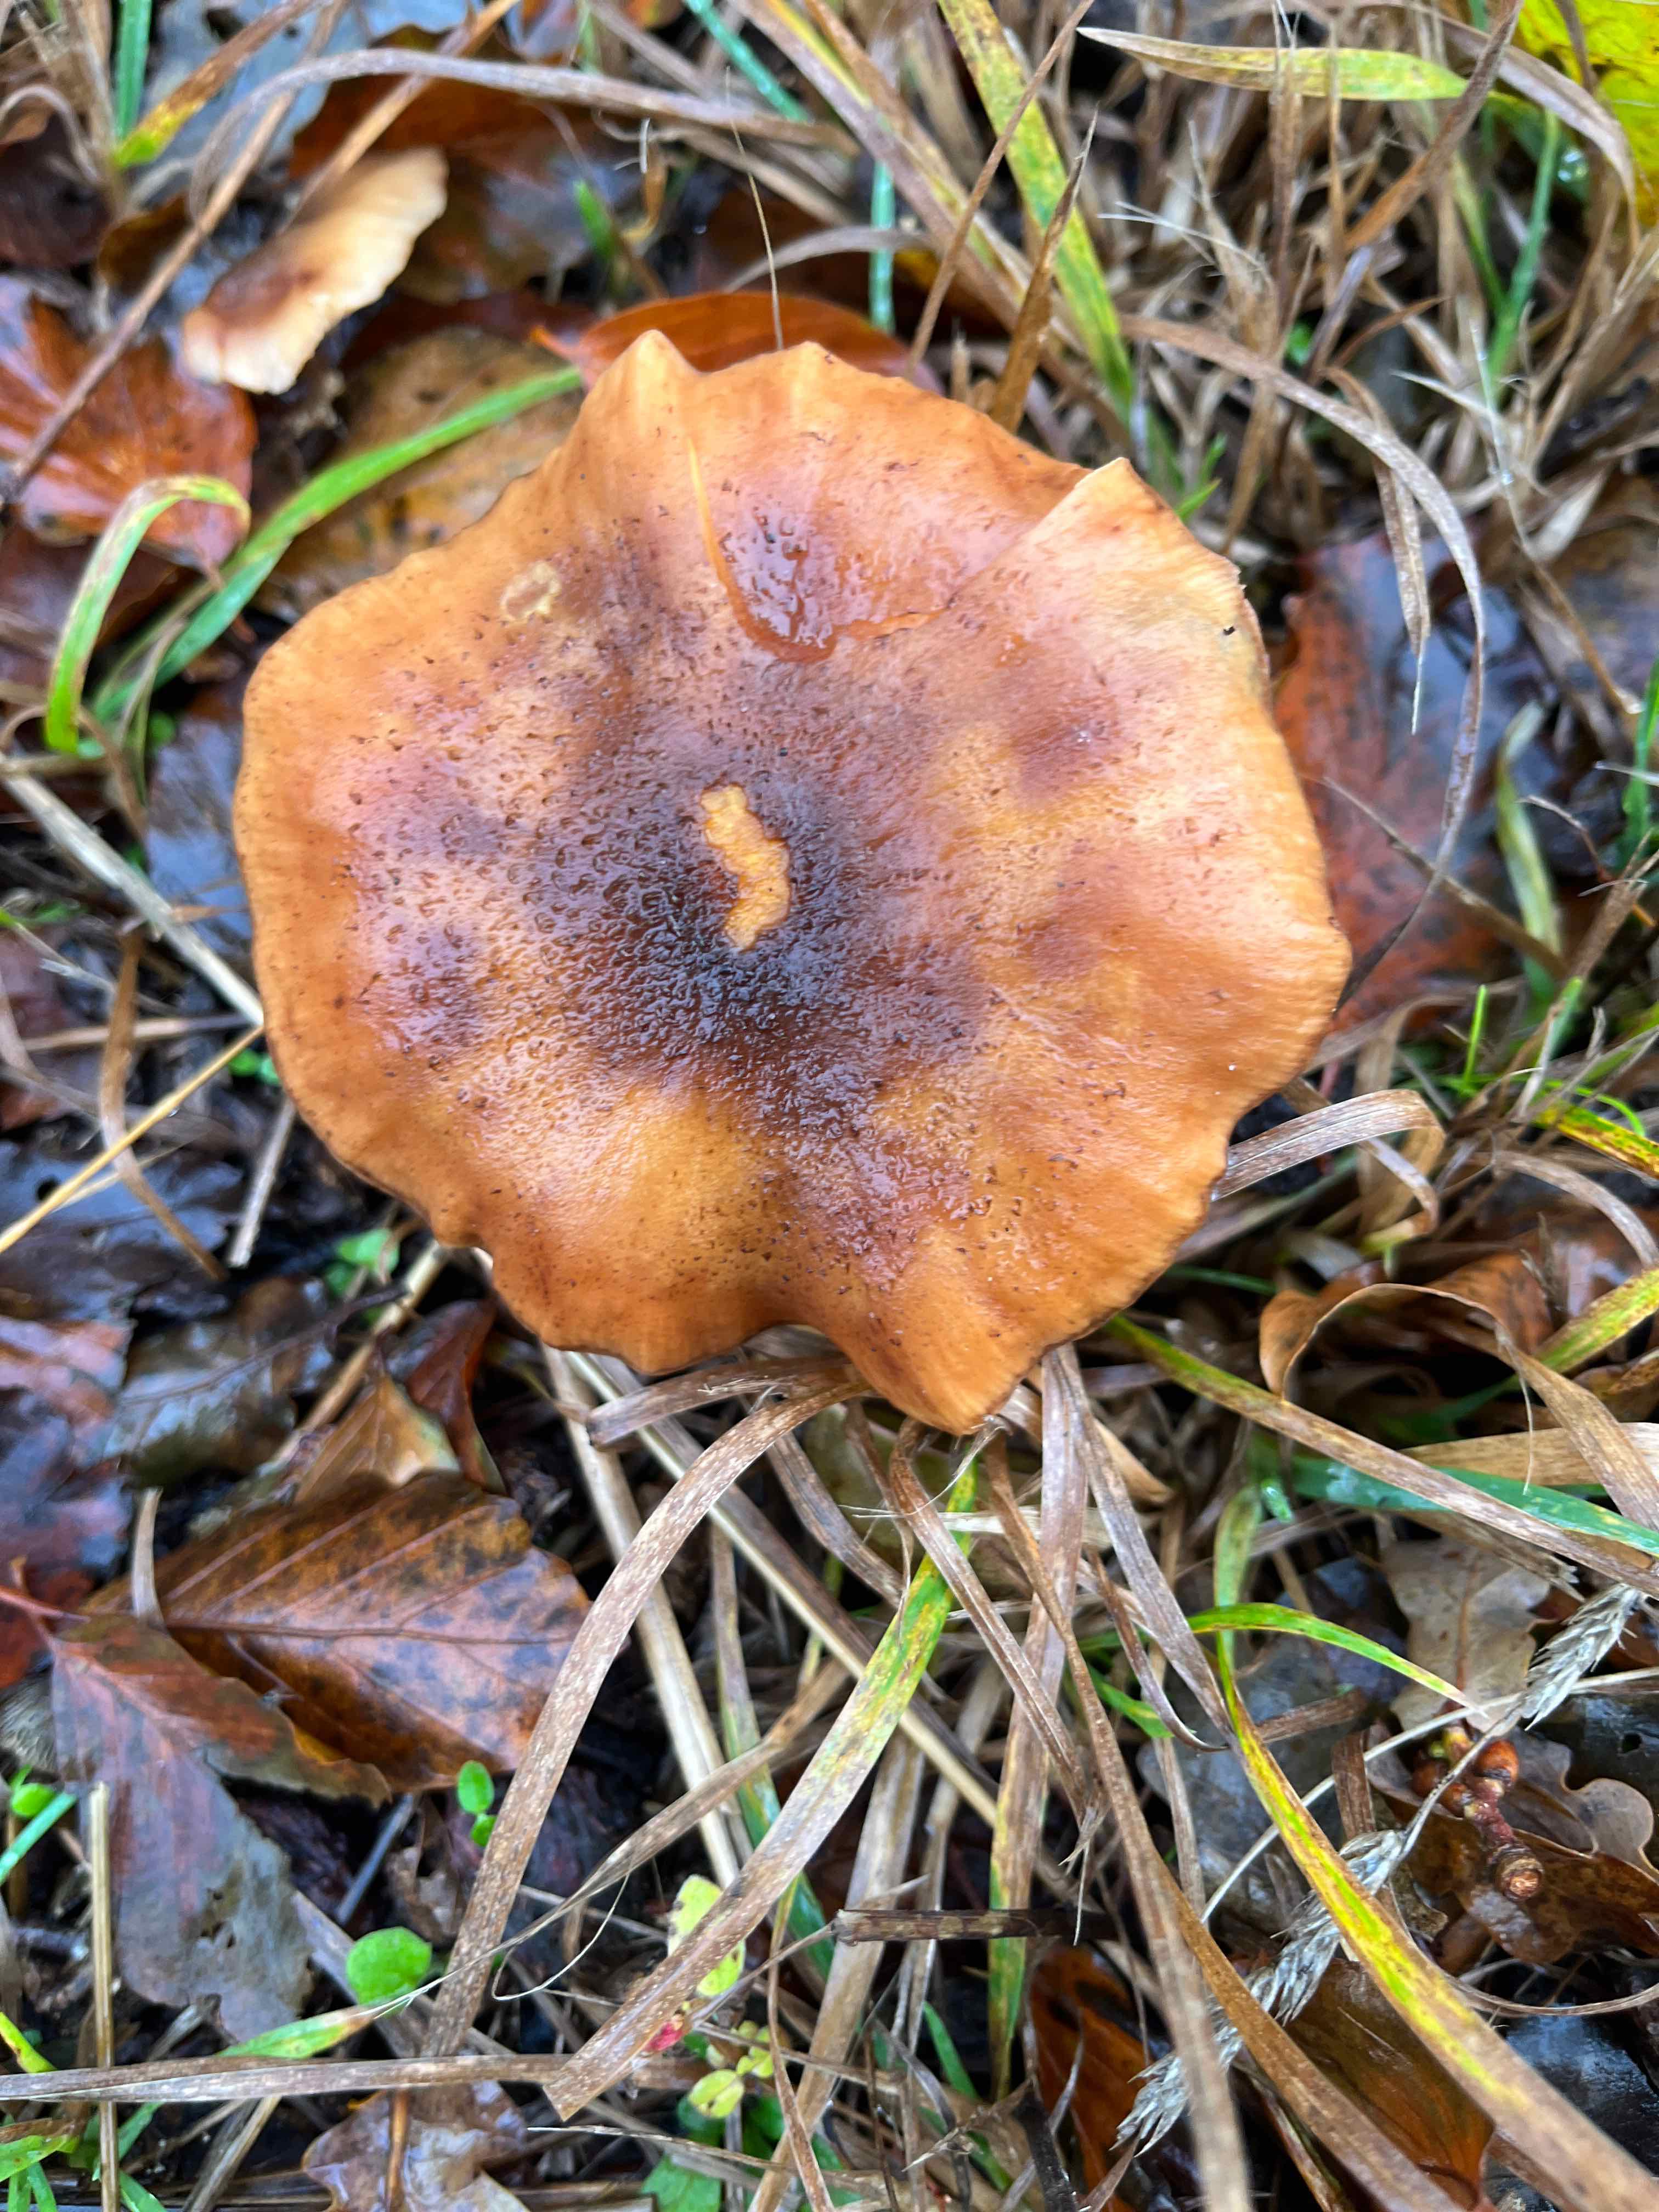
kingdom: Fungi
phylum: Basidiomycota
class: Agaricomycetes
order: Agaricales
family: Physalacriaceae
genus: Armillaria
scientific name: Armillaria
